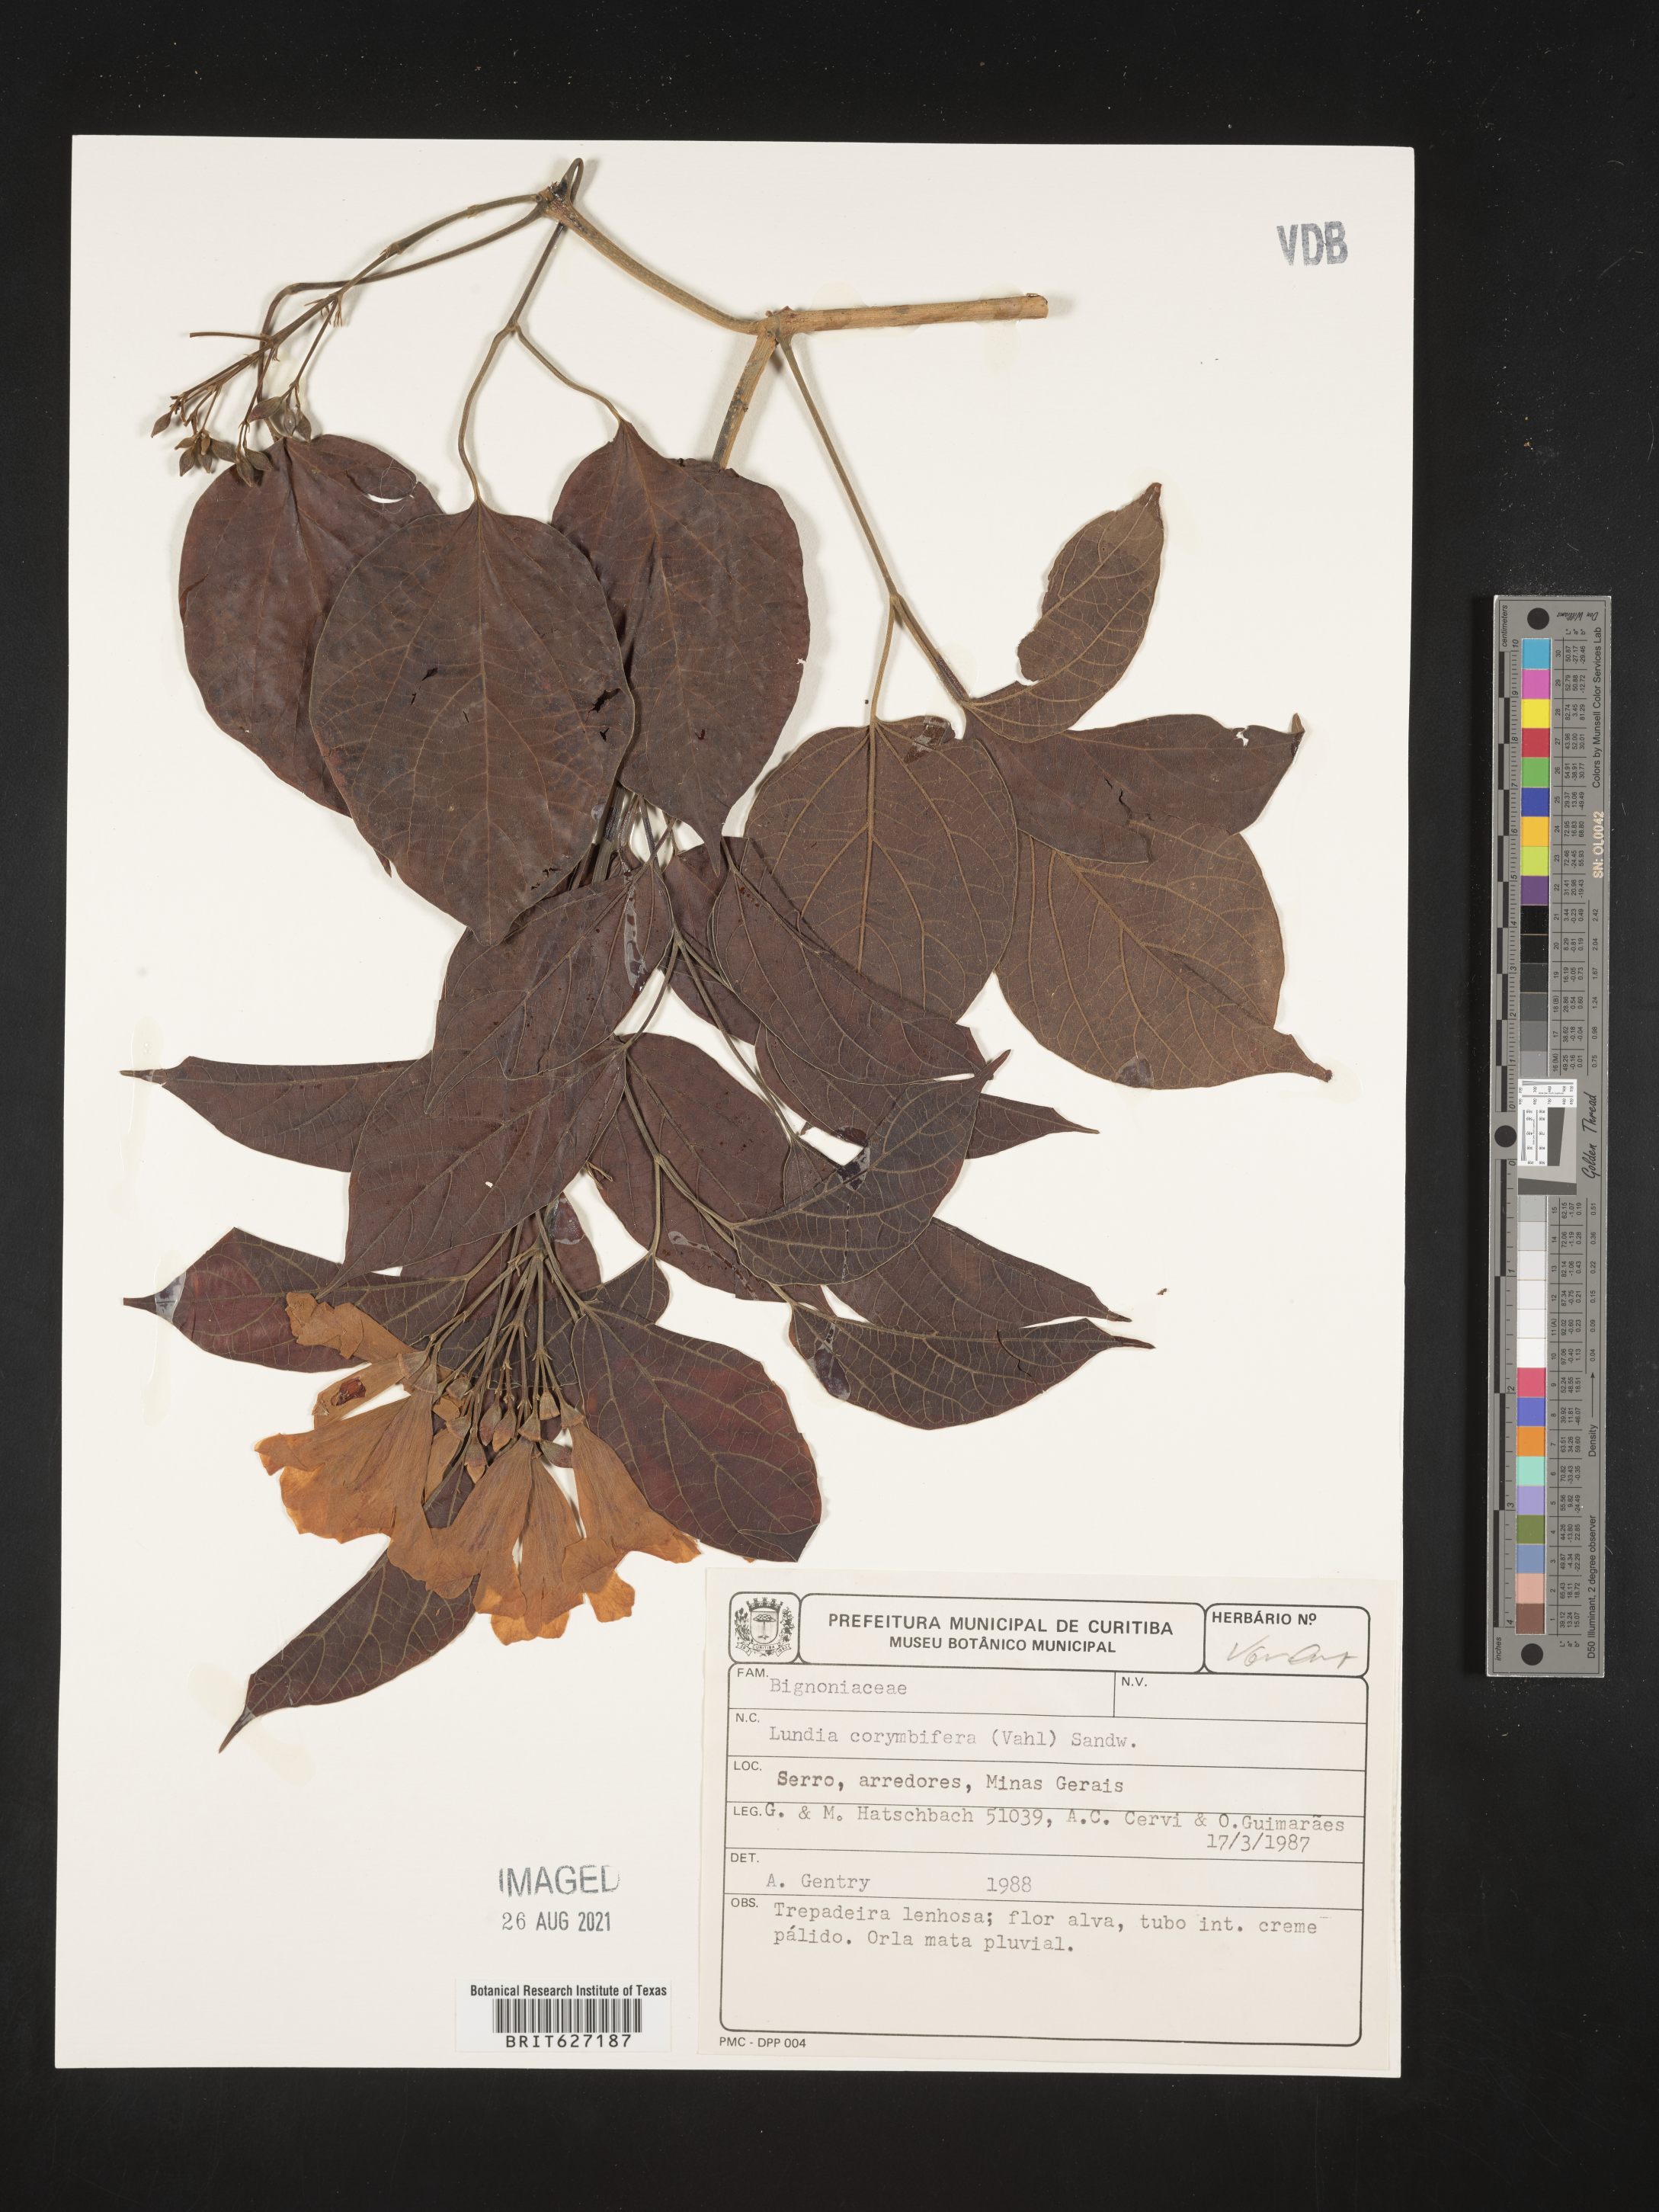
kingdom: Plantae
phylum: Tracheophyta
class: Magnoliopsida
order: Lamiales
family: Bignoniaceae
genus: Lundia
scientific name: Lundia corymbifera
